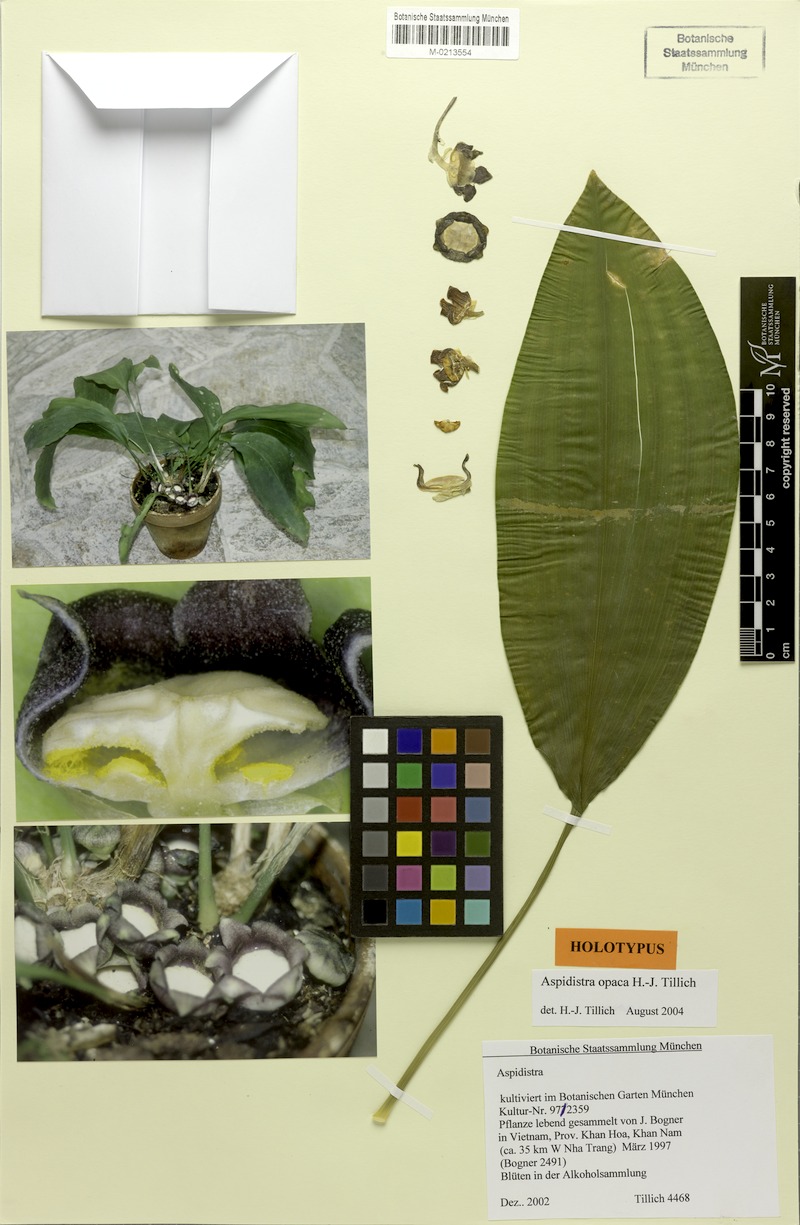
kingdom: Plantae
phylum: Tracheophyta
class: Liliopsida
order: Asparagales
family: Asparagaceae
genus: Aspidistra
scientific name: Aspidistra opaca
